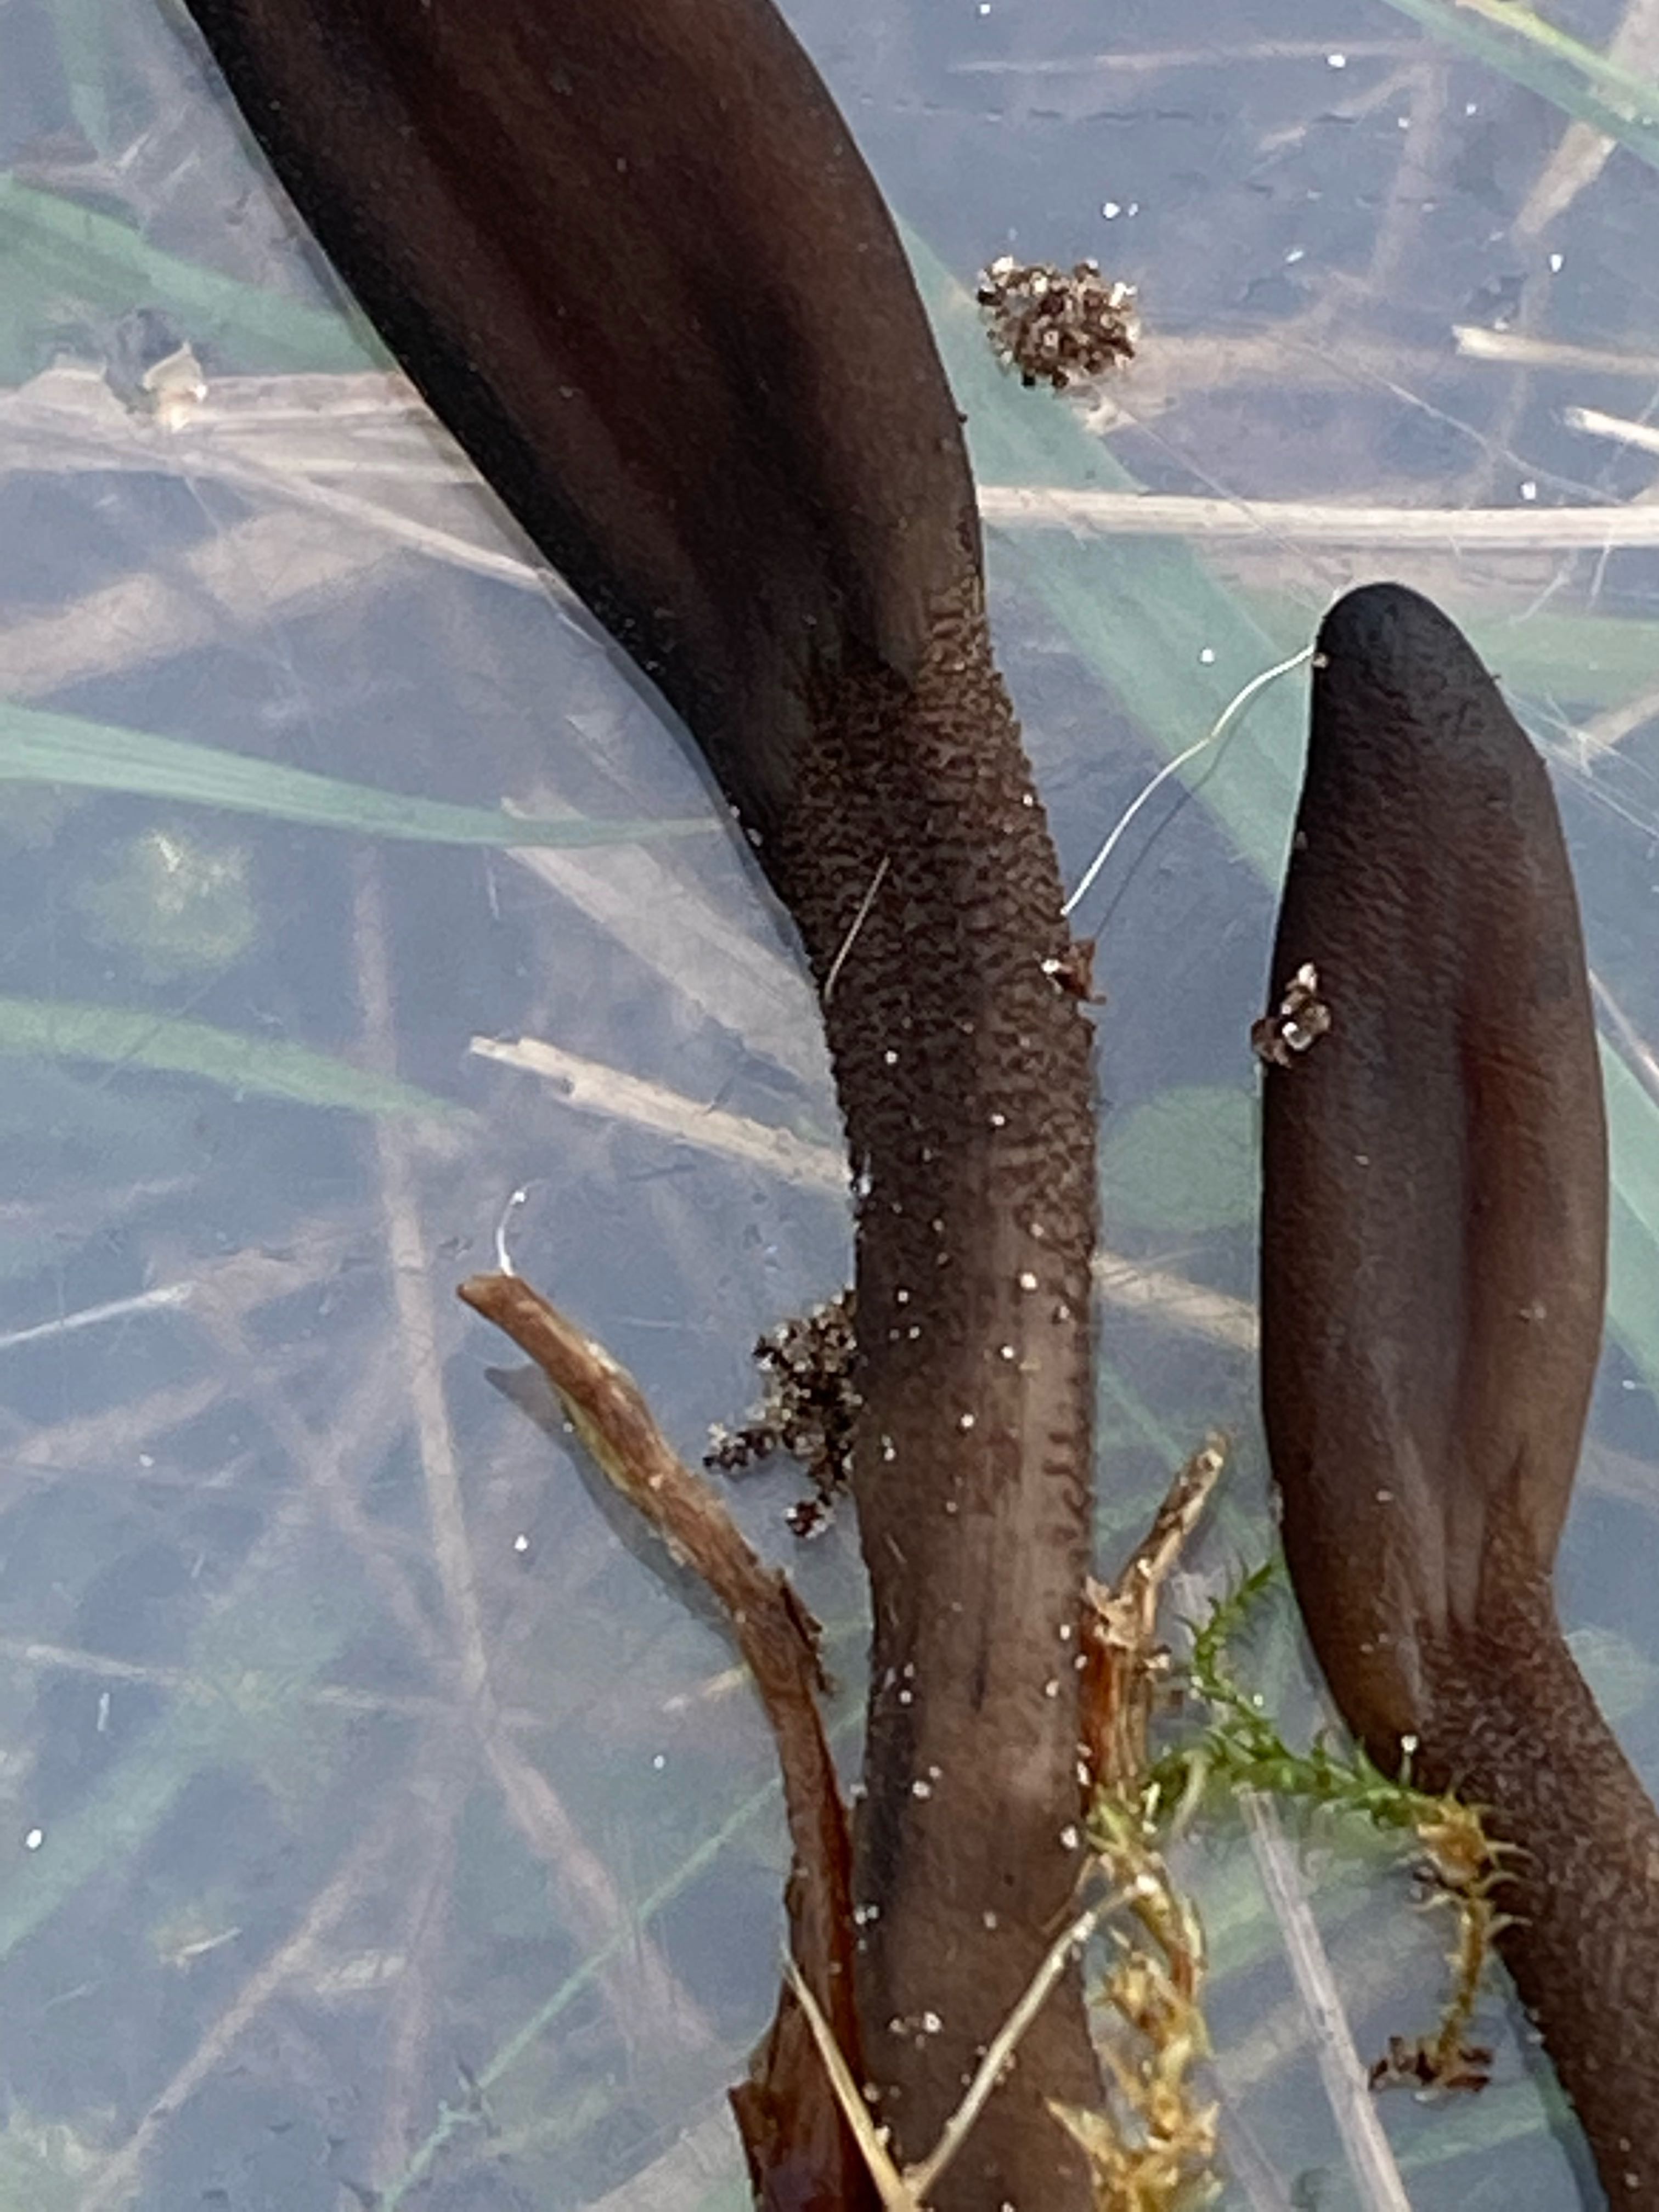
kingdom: Fungi
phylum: Ascomycota
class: Geoglossomycetes
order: Geoglossales
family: Geoglossaceae
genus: Geoglossum
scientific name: Geoglossum
